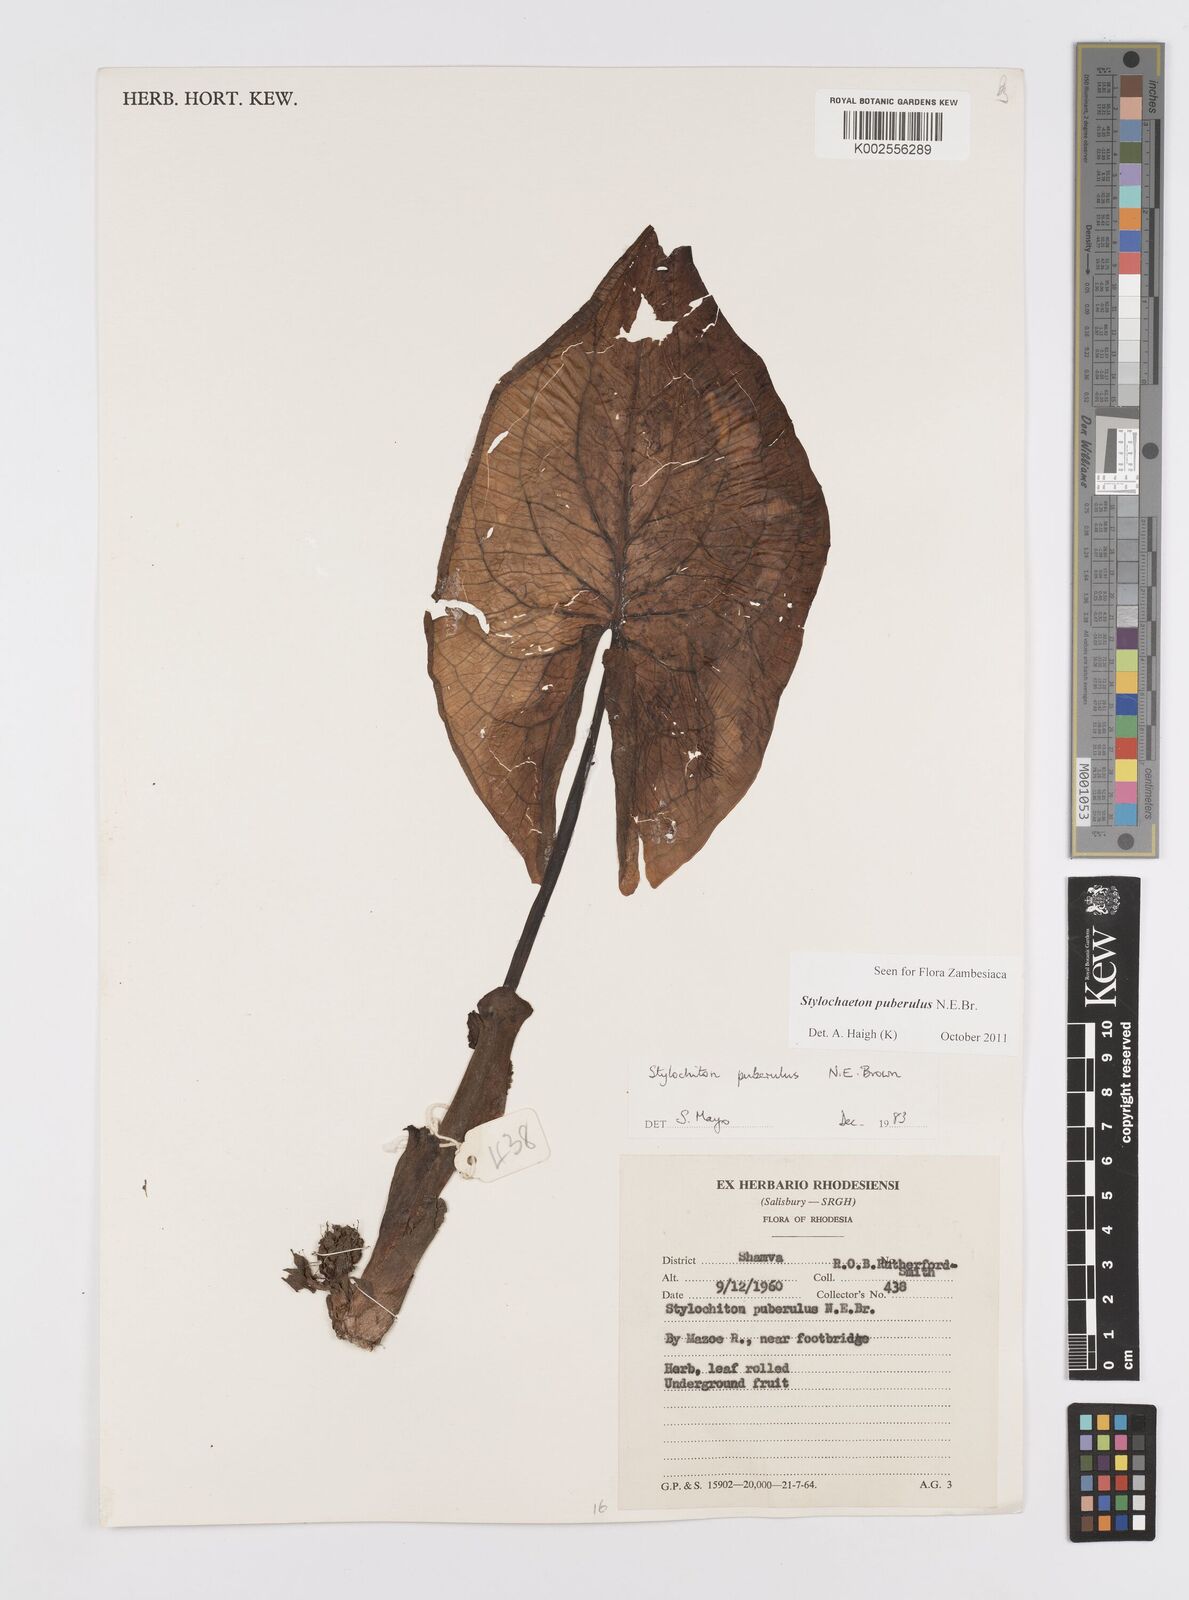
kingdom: Plantae
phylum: Tracheophyta
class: Liliopsida
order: Alismatales
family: Araceae
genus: Stylochaeton
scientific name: Stylochaeton puberulum
